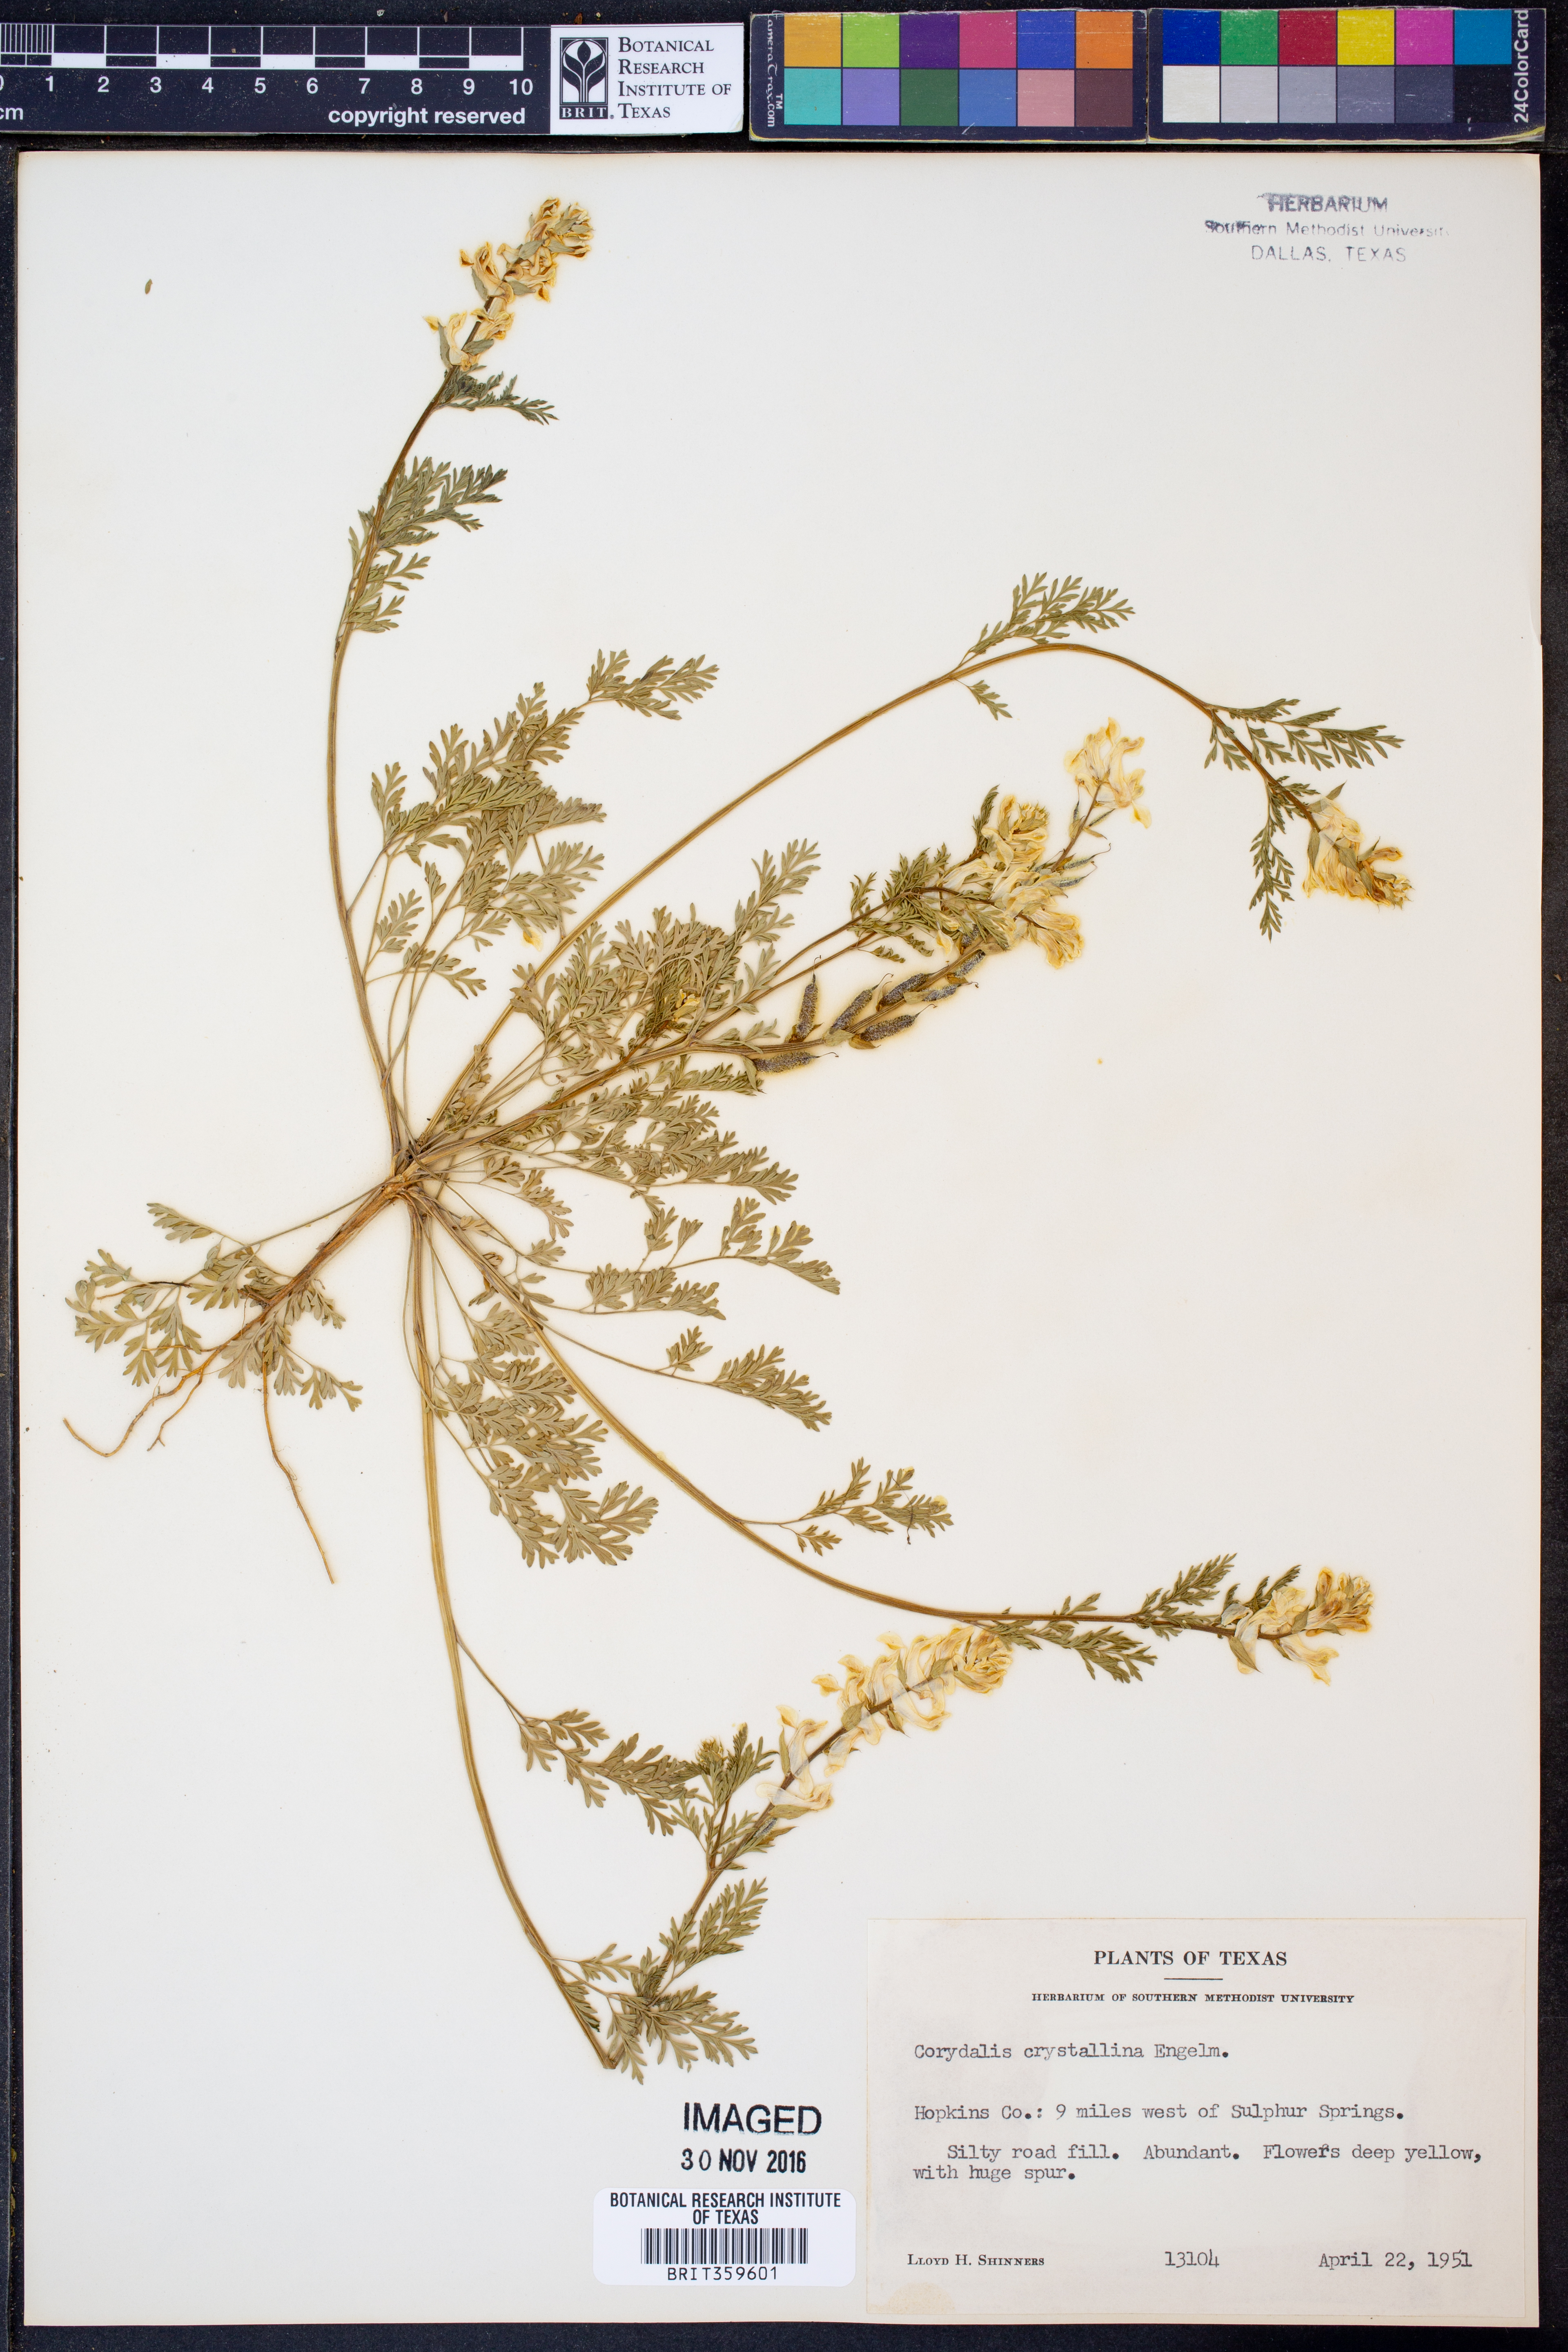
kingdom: Plantae
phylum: Tracheophyta
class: Magnoliopsida
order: Ranunculales
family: Papaveraceae
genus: Corydalis
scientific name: Corydalis crystallina
